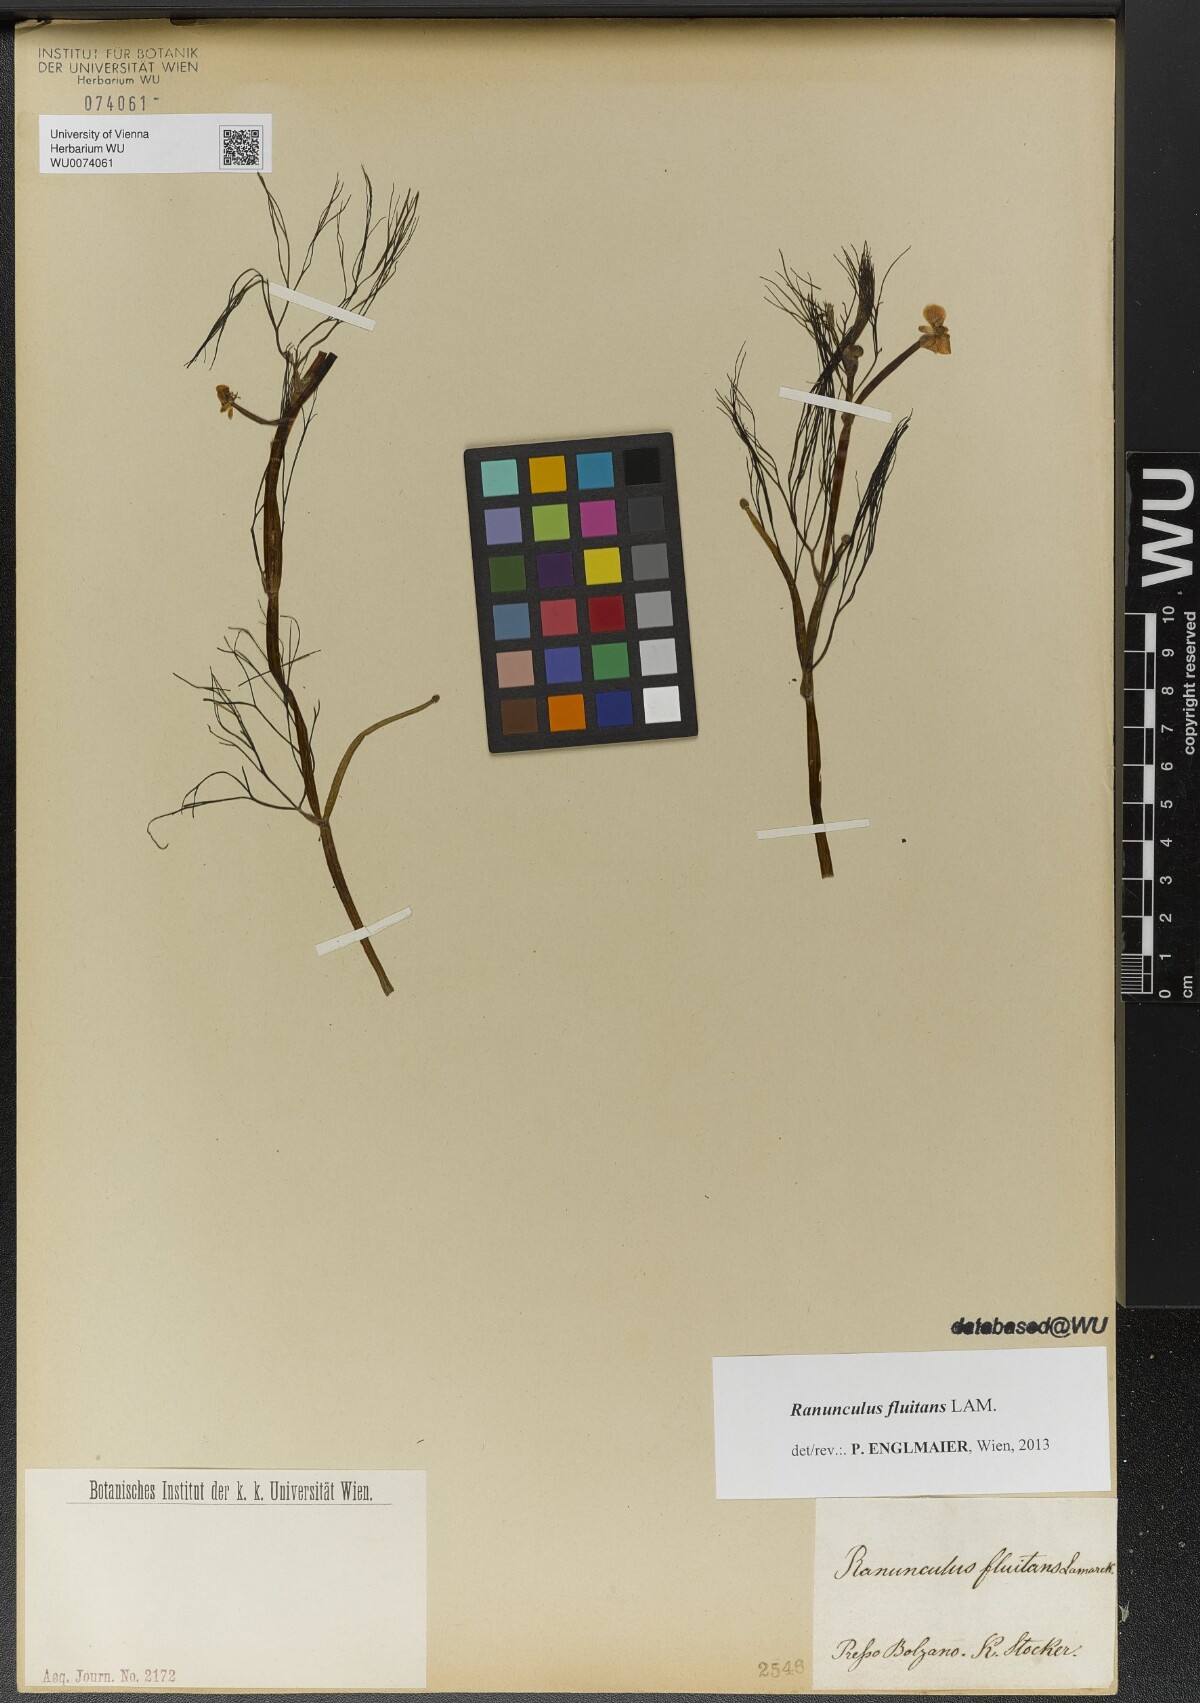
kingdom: Plantae
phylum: Tracheophyta
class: Magnoliopsida
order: Ranunculales
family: Ranunculaceae
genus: Ranunculus
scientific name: Ranunculus fluitans
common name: River water-crowfoot
